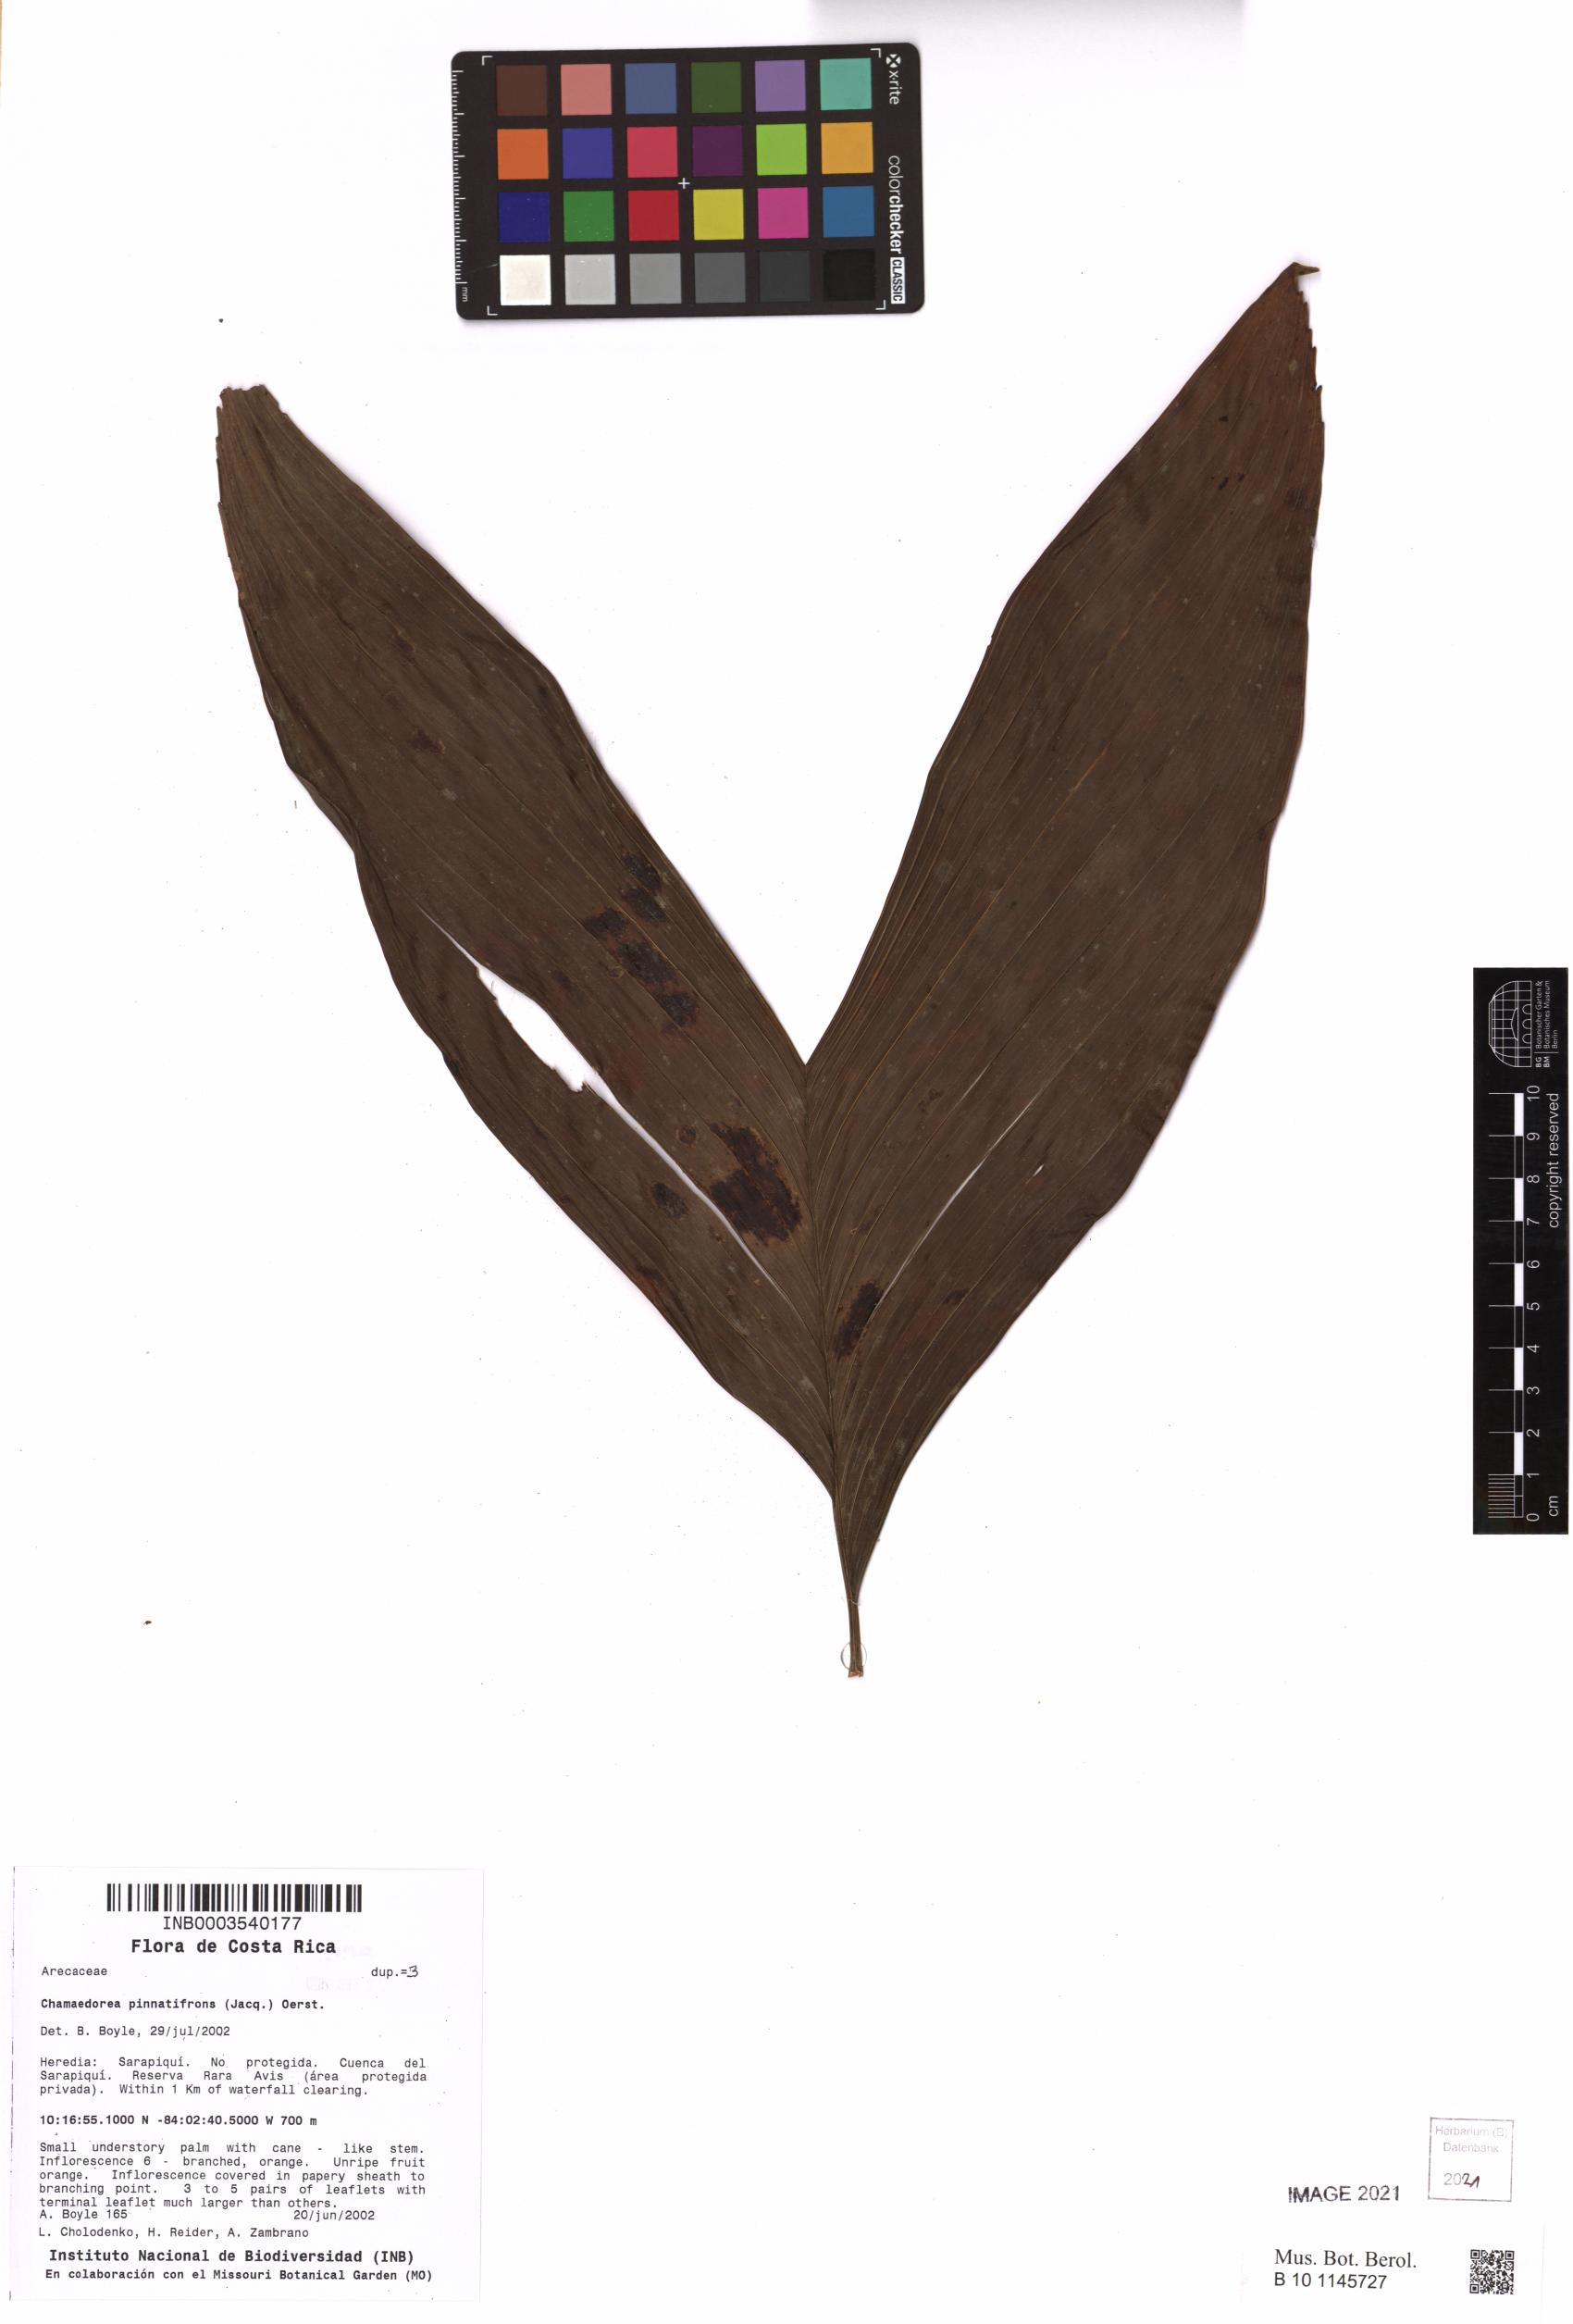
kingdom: Plantae
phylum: Tracheophyta
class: Liliopsida
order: Arecales
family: Arecaceae
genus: Chamaedorea
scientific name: Chamaedorea pinnatifrons
